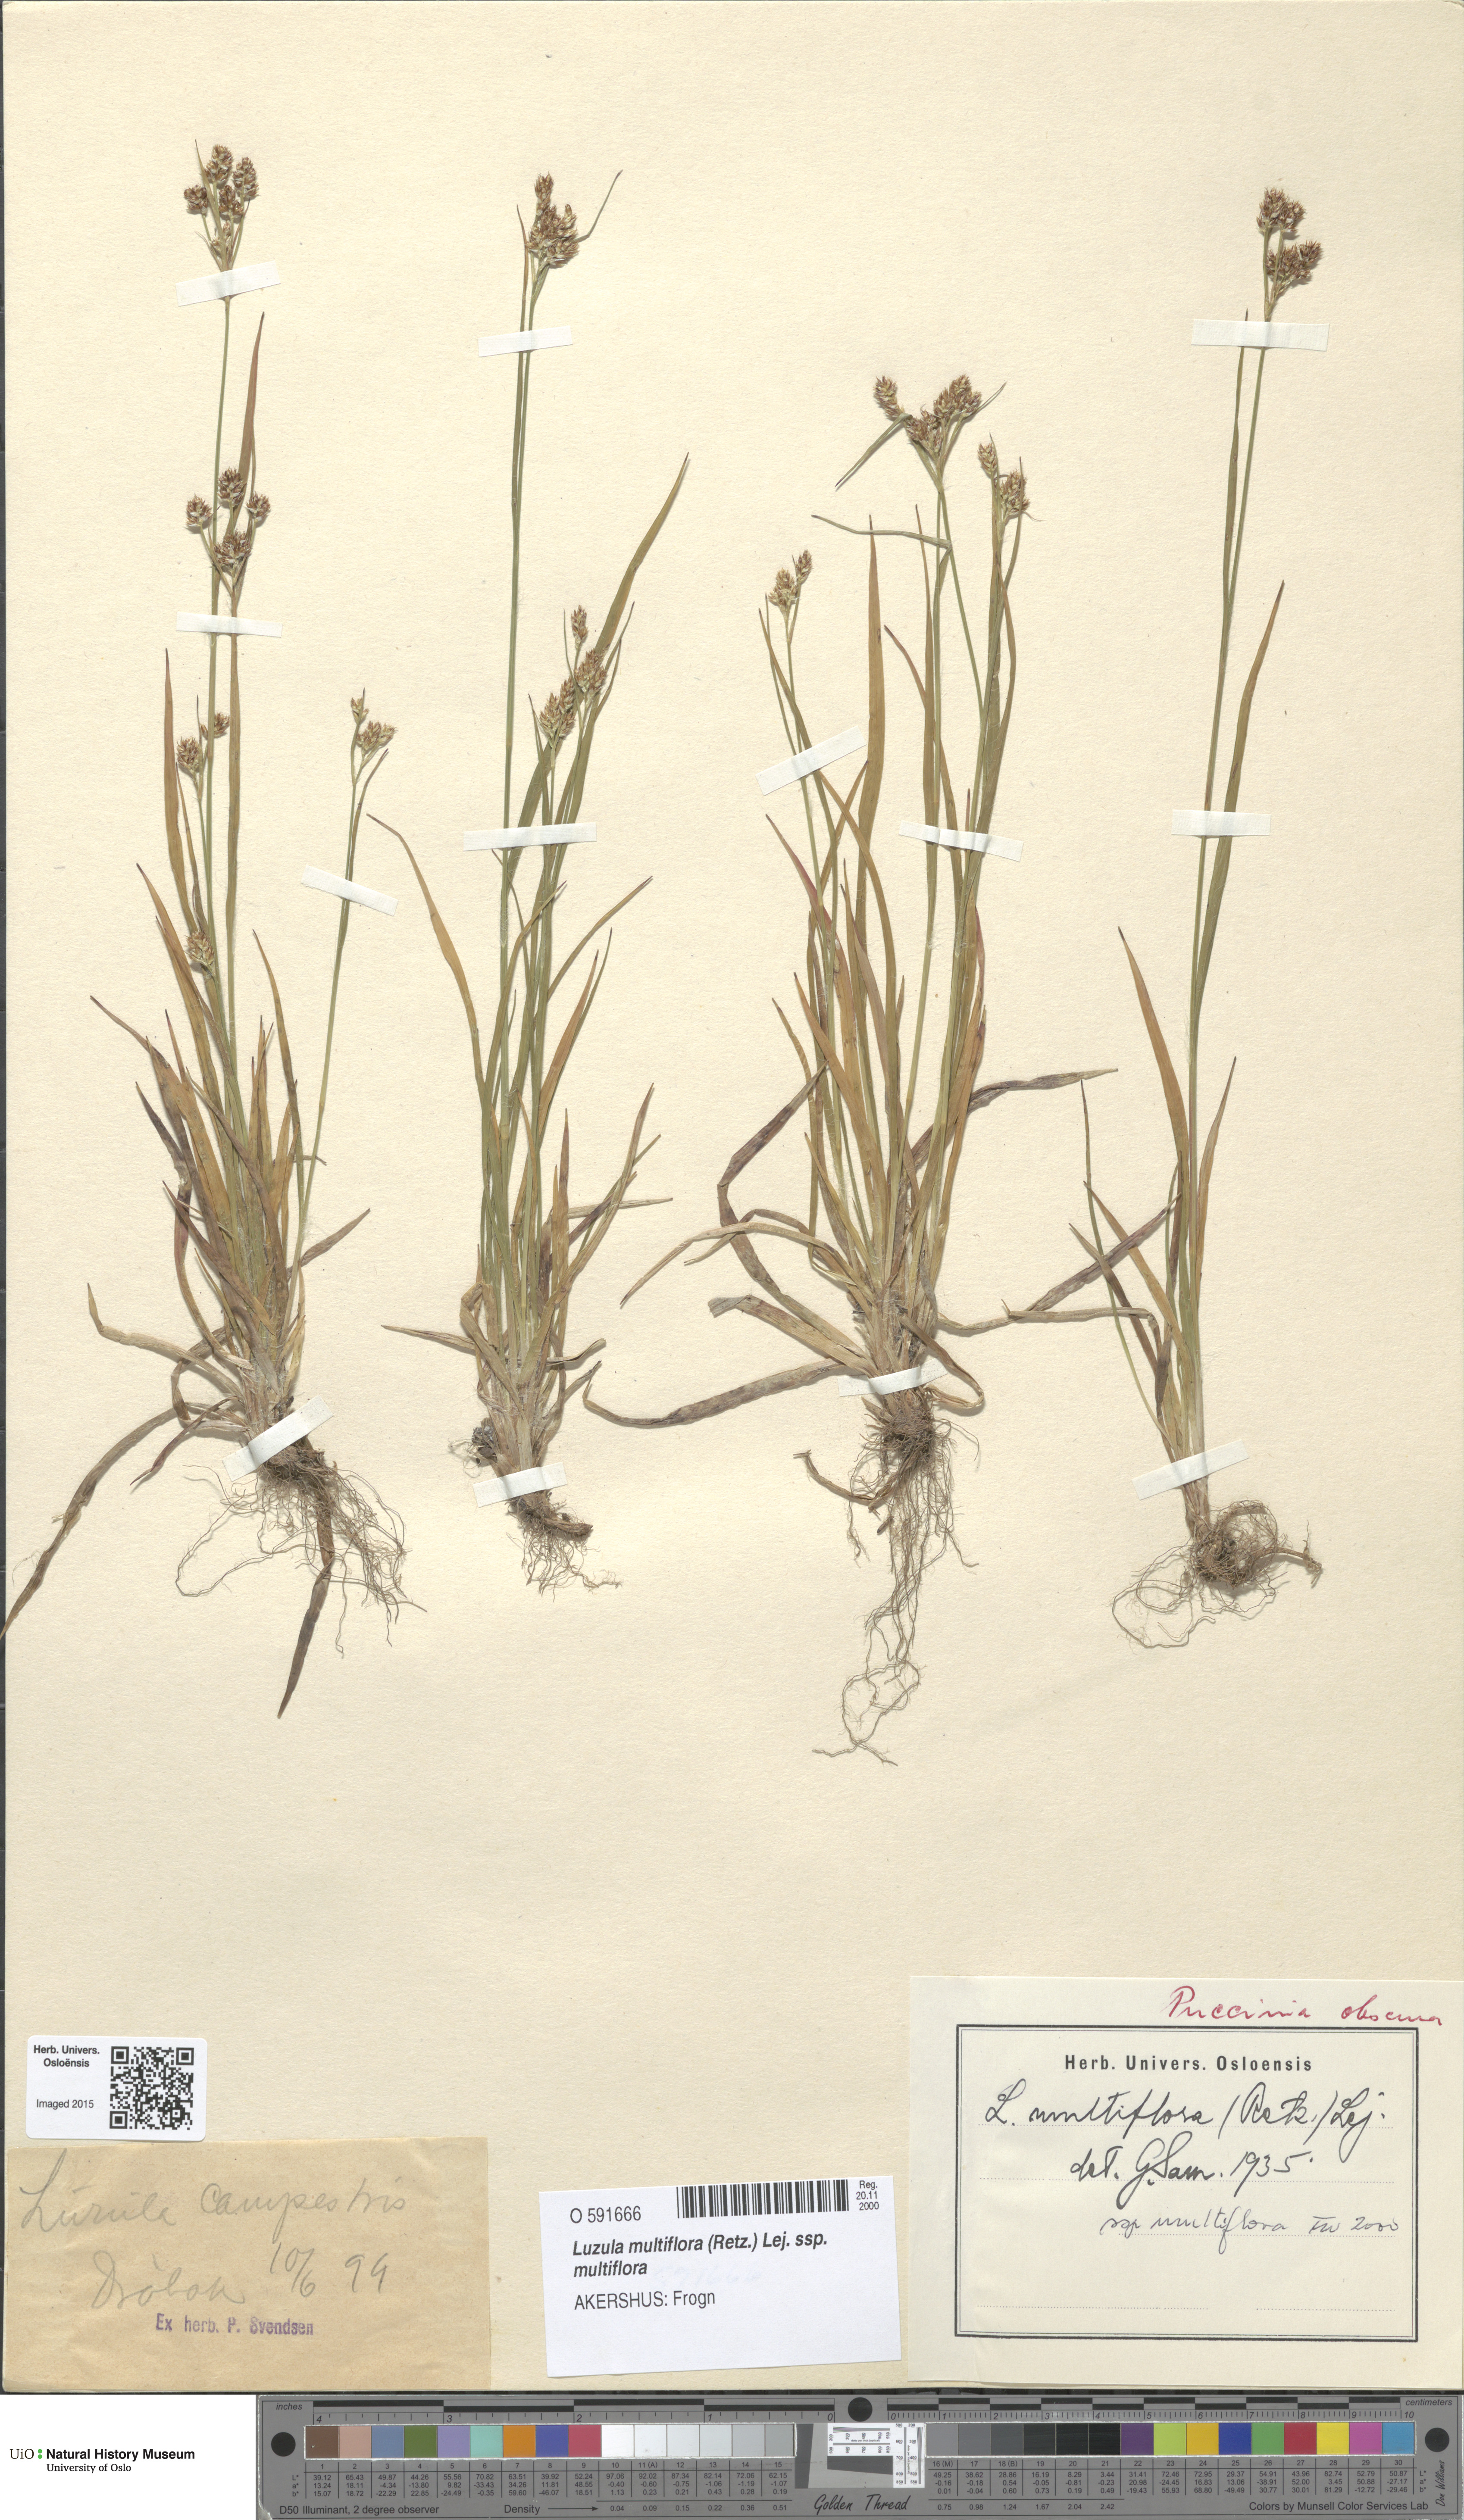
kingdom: Plantae
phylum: Tracheophyta
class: Liliopsida
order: Poales
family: Juncaceae
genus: Luzula
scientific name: Luzula multiflora
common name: Heath wood-rush
